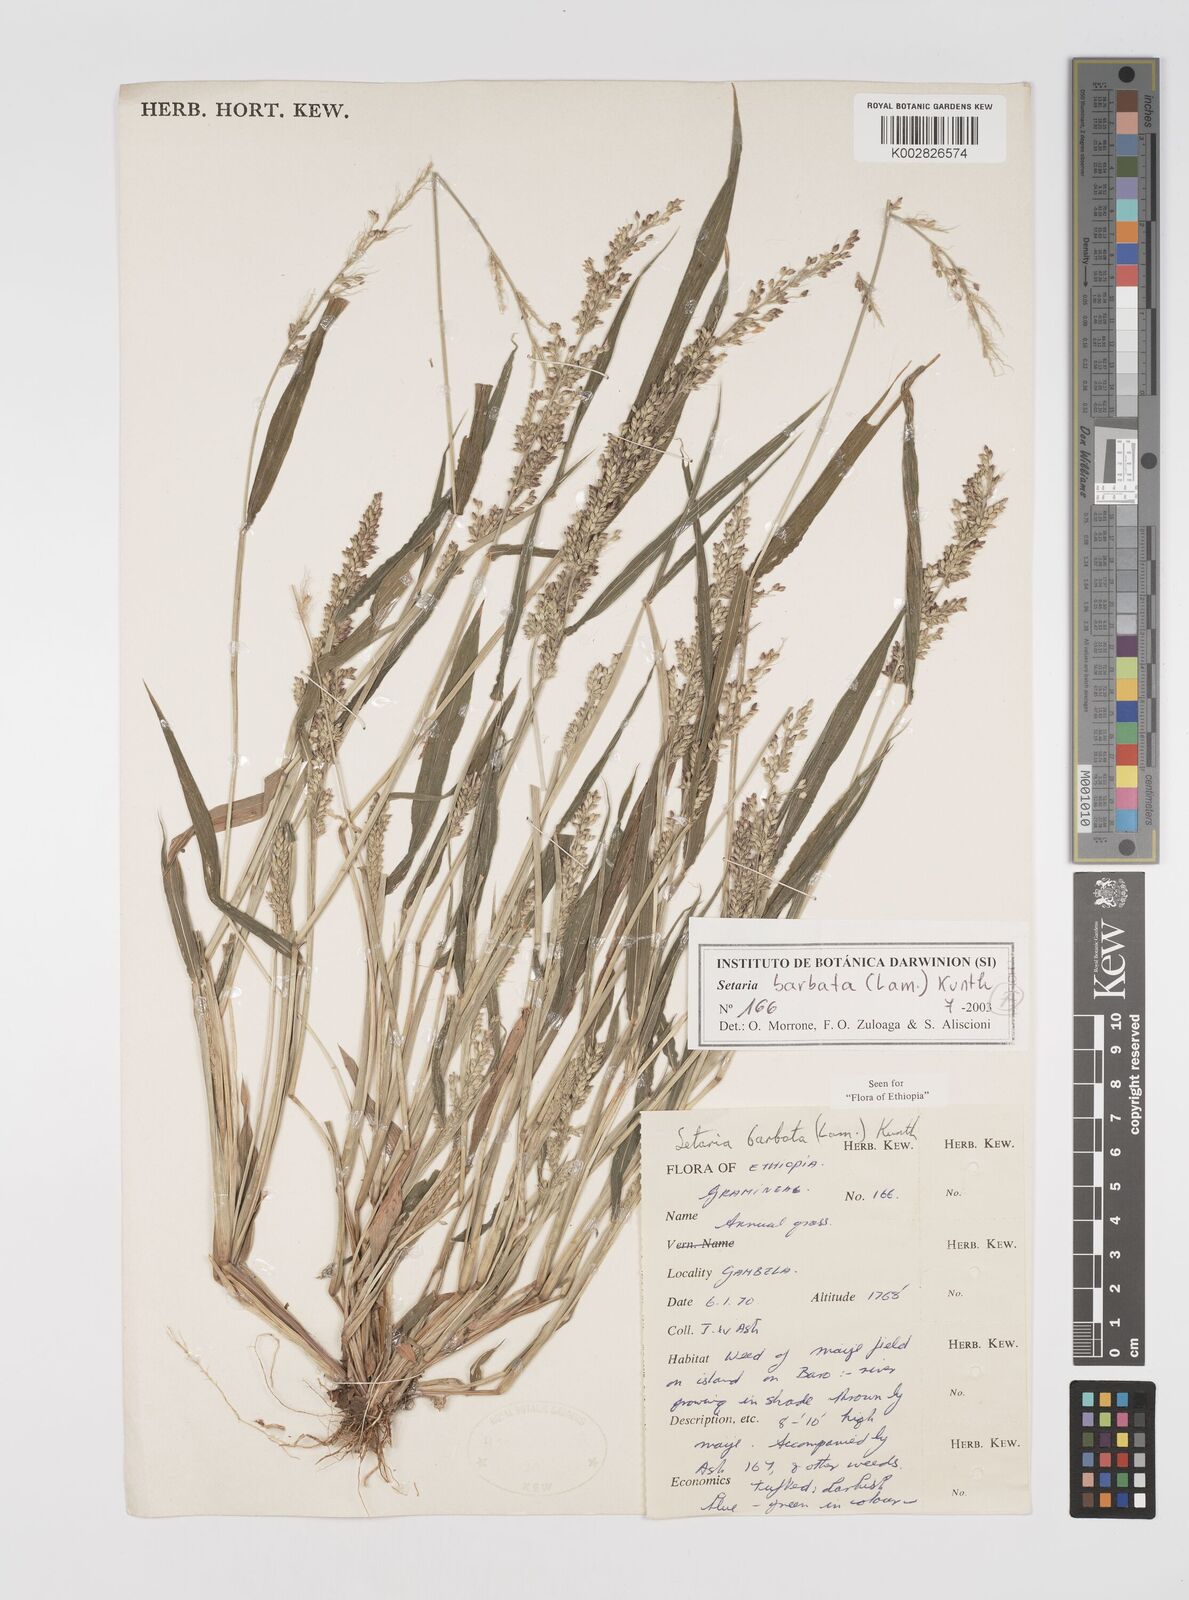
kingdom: Plantae
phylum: Tracheophyta
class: Liliopsida
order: Poales
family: Poaceae
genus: Setaria
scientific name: Setaria barbata
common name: East indian bristlegrass
